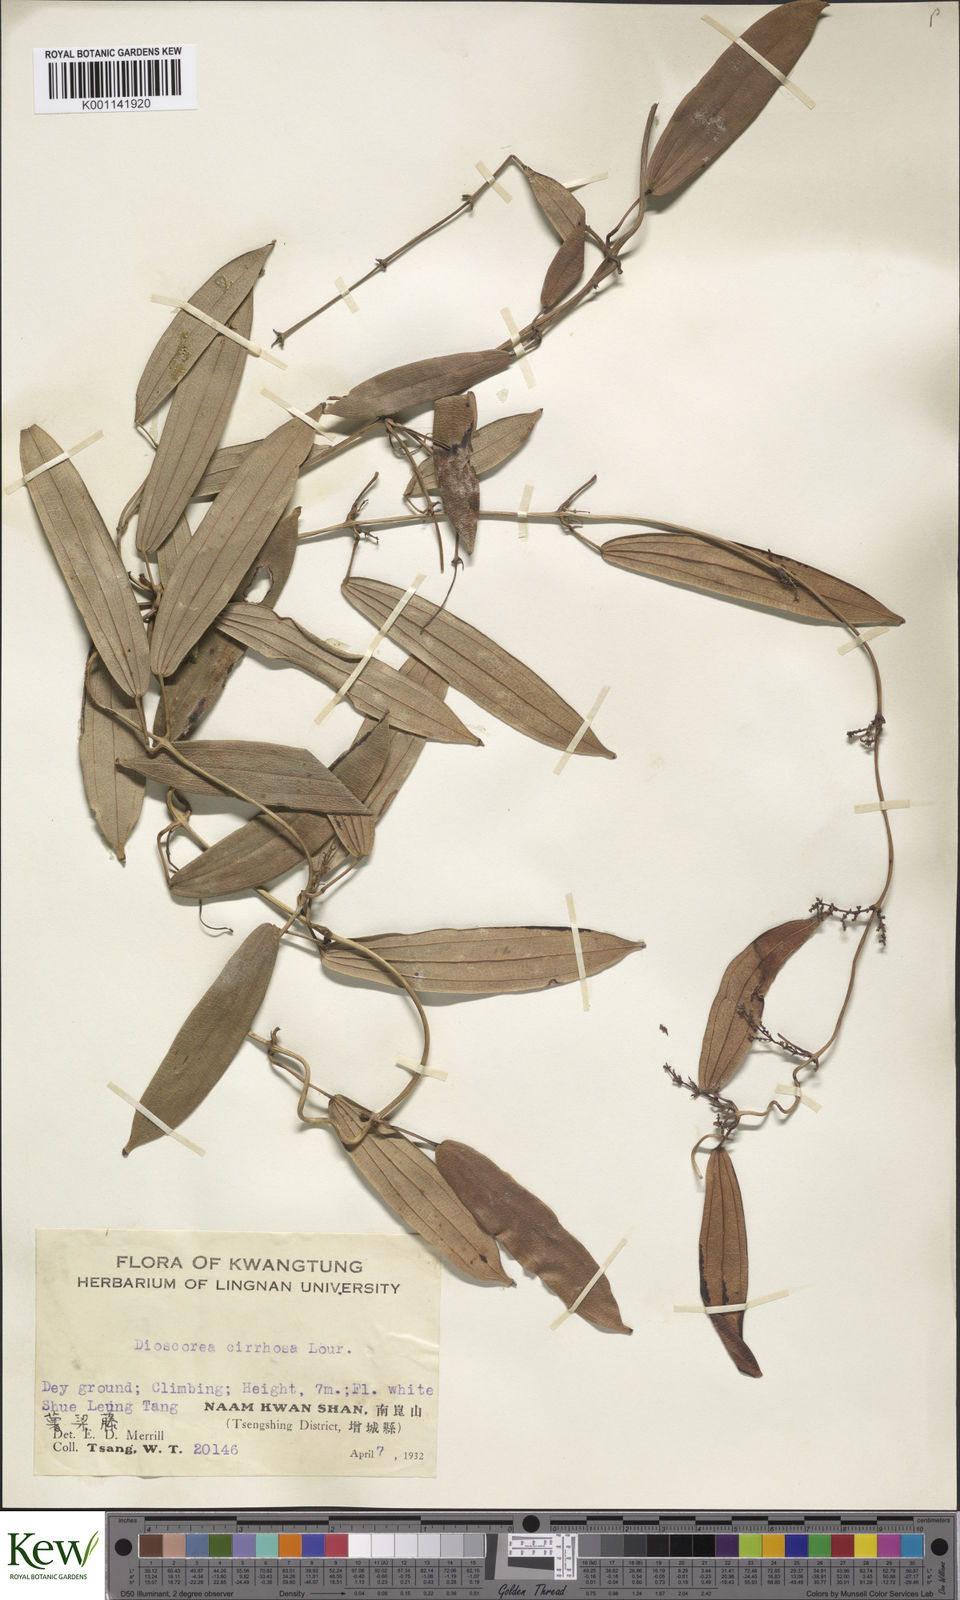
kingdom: Plantae
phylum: Tracheophyta
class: Liliopsida
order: Dioscoreales
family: Dioscoreaceae
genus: Dioscorea
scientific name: Dioscorea cirrhosa
